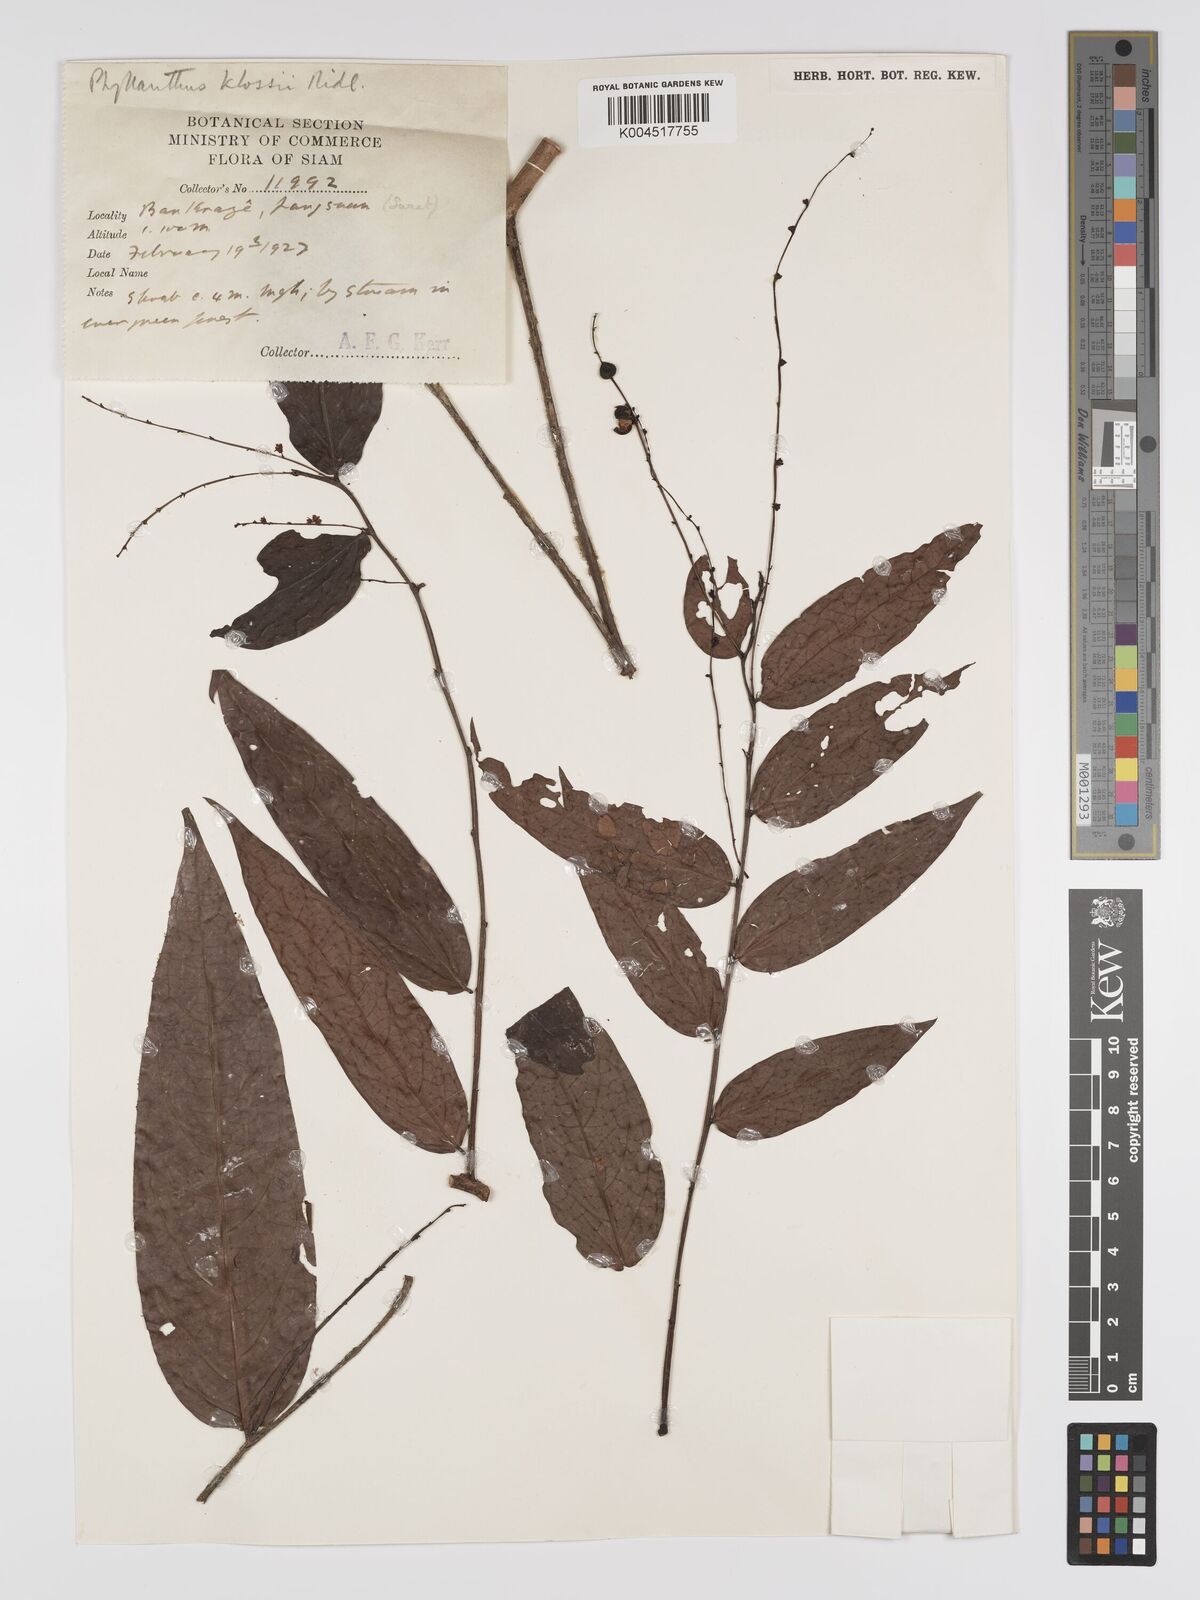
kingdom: Plantae
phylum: Tracheophyta
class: Magnoliopsida
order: Malpighiales
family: Phyllanthaceae
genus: Phyllanthus
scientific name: Phyllanthus pachyphyllus
